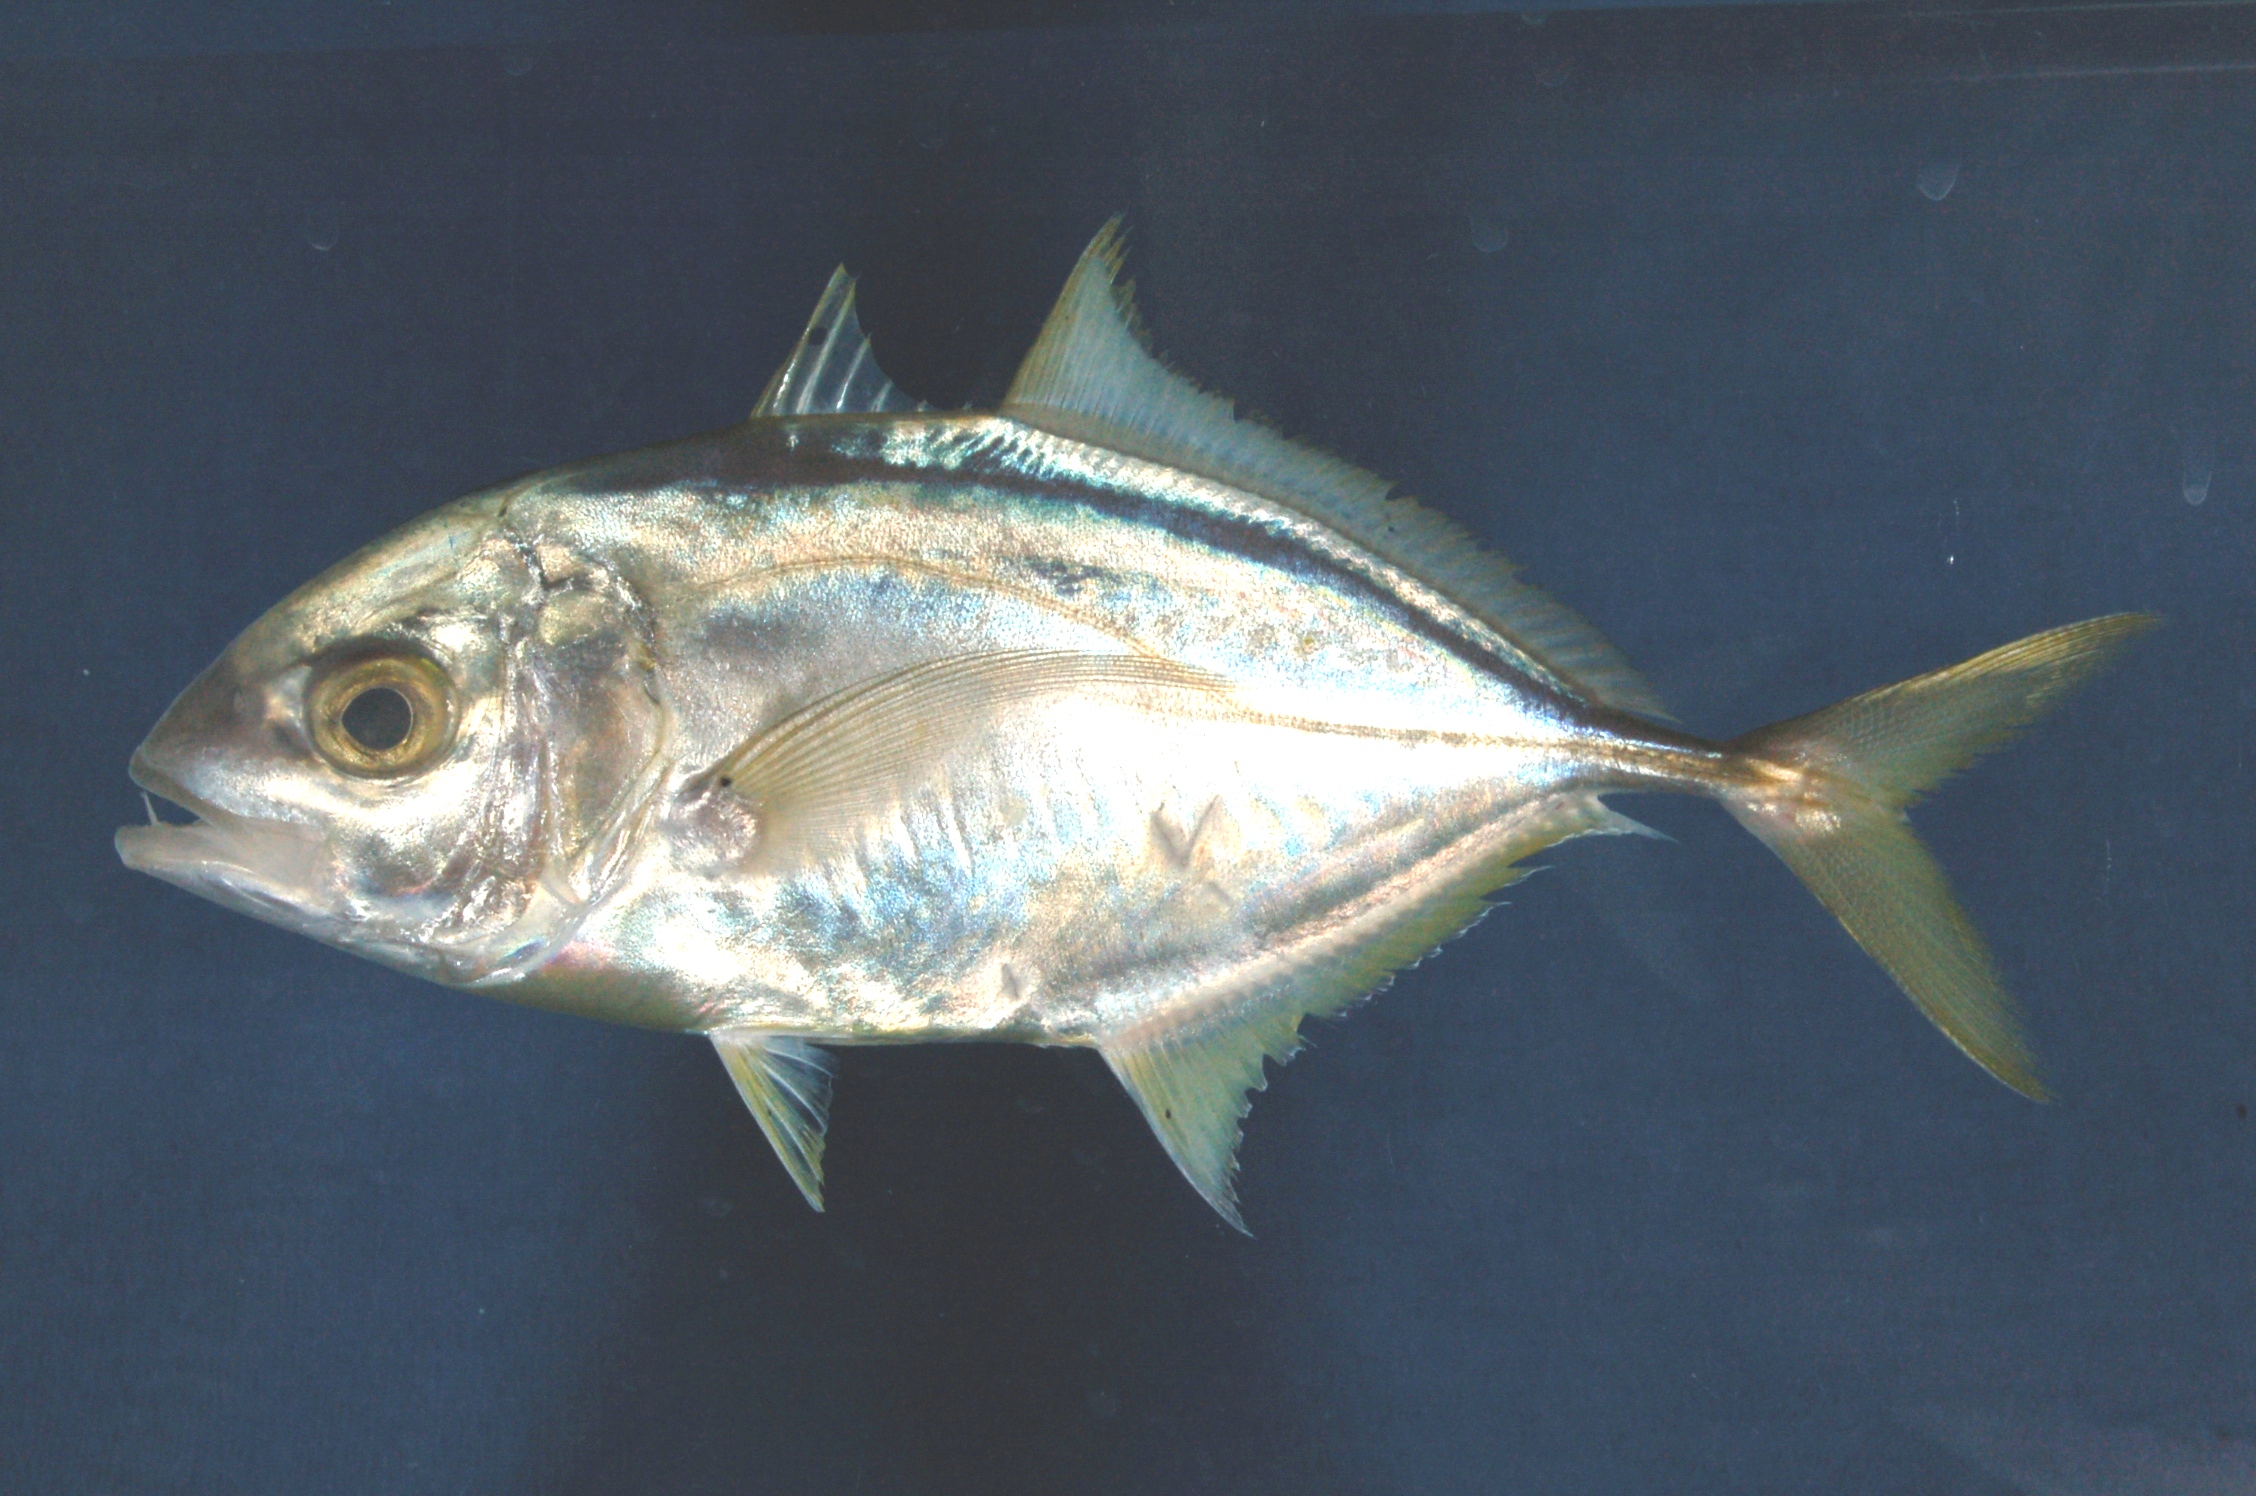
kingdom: Animalia
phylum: Chordata
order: Perciformes
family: Carangidae
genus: Carangoides
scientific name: Carangoides fulvoguttatus
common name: Yellowspotted trevally
